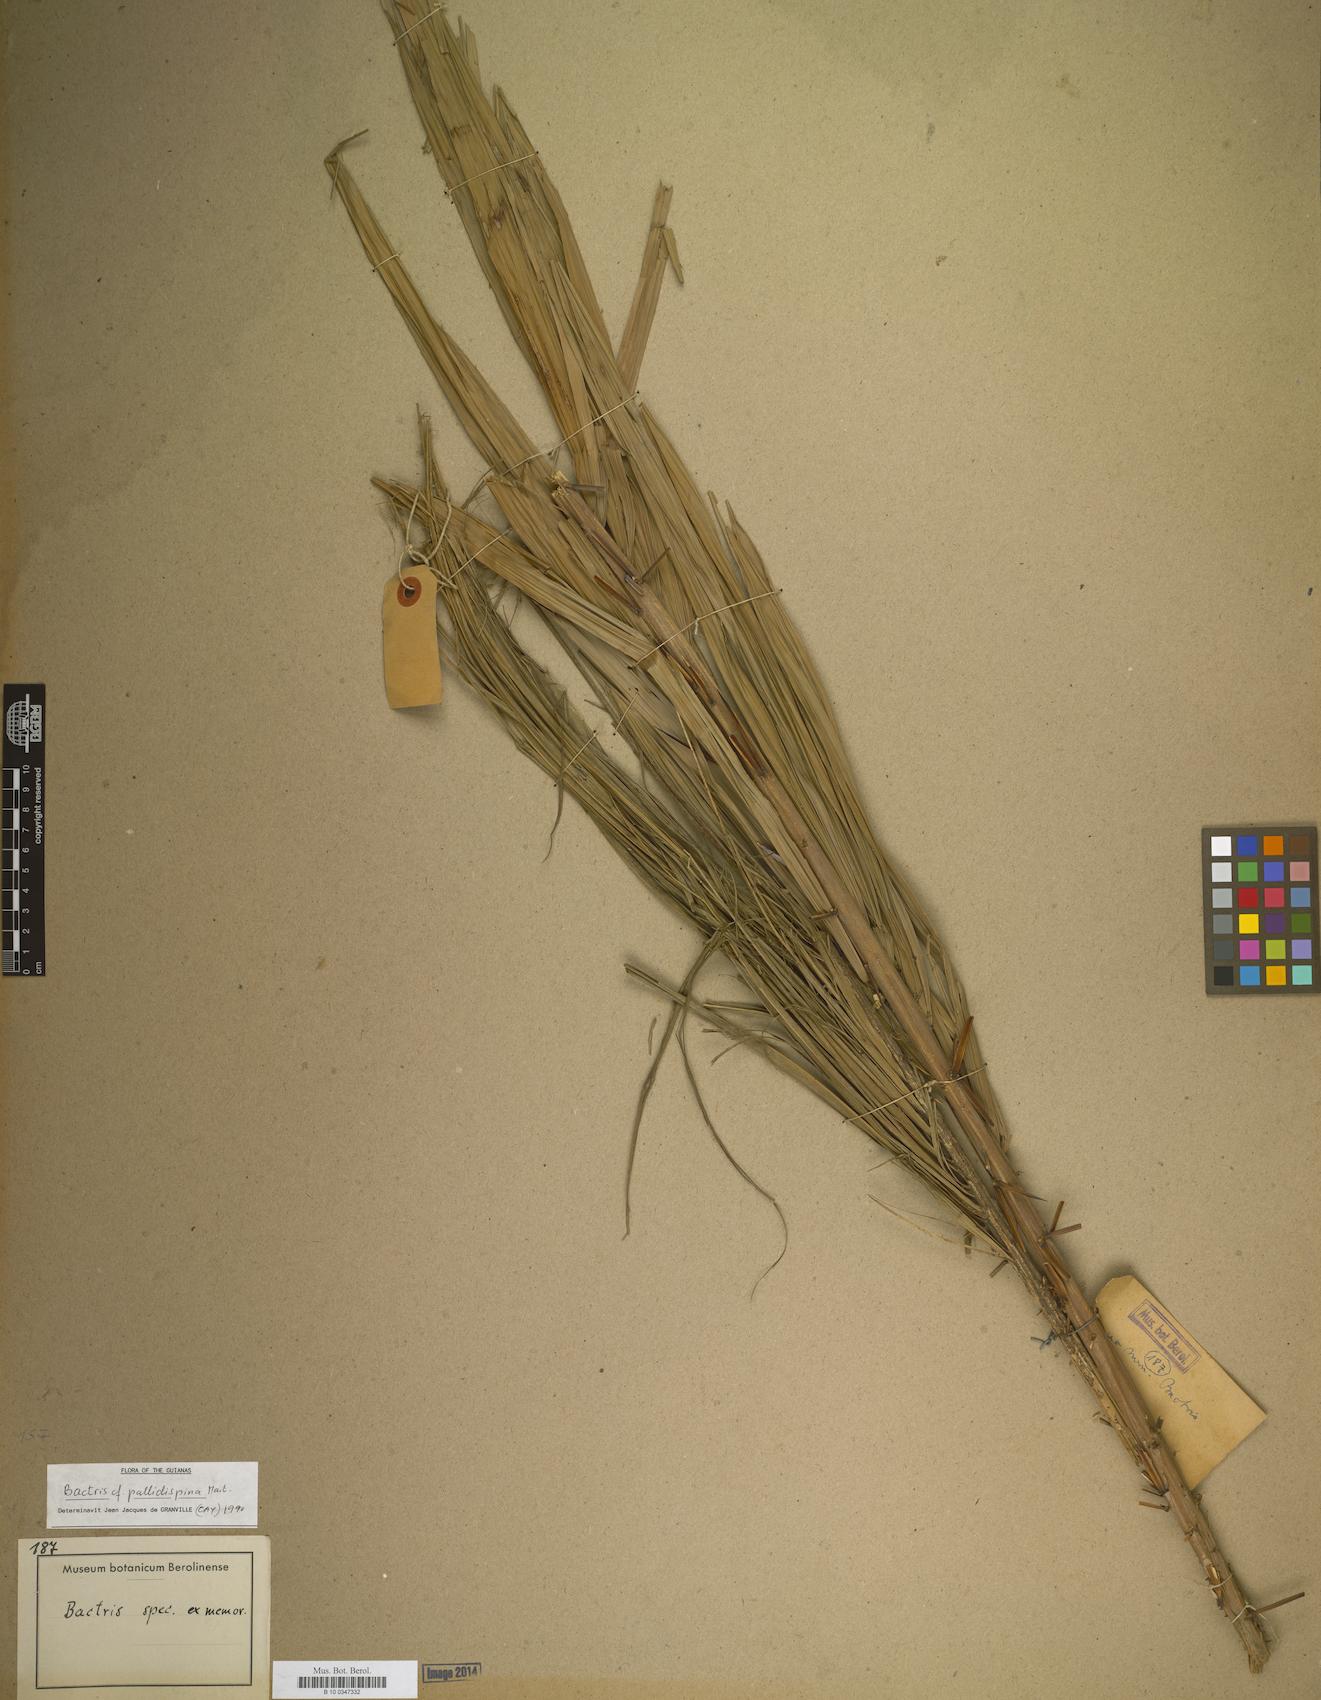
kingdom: Plantae
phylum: Tracheophyta
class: Liliopsida
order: Arecales
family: Arecaceae
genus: Bactris
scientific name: Bactris brongniartii
